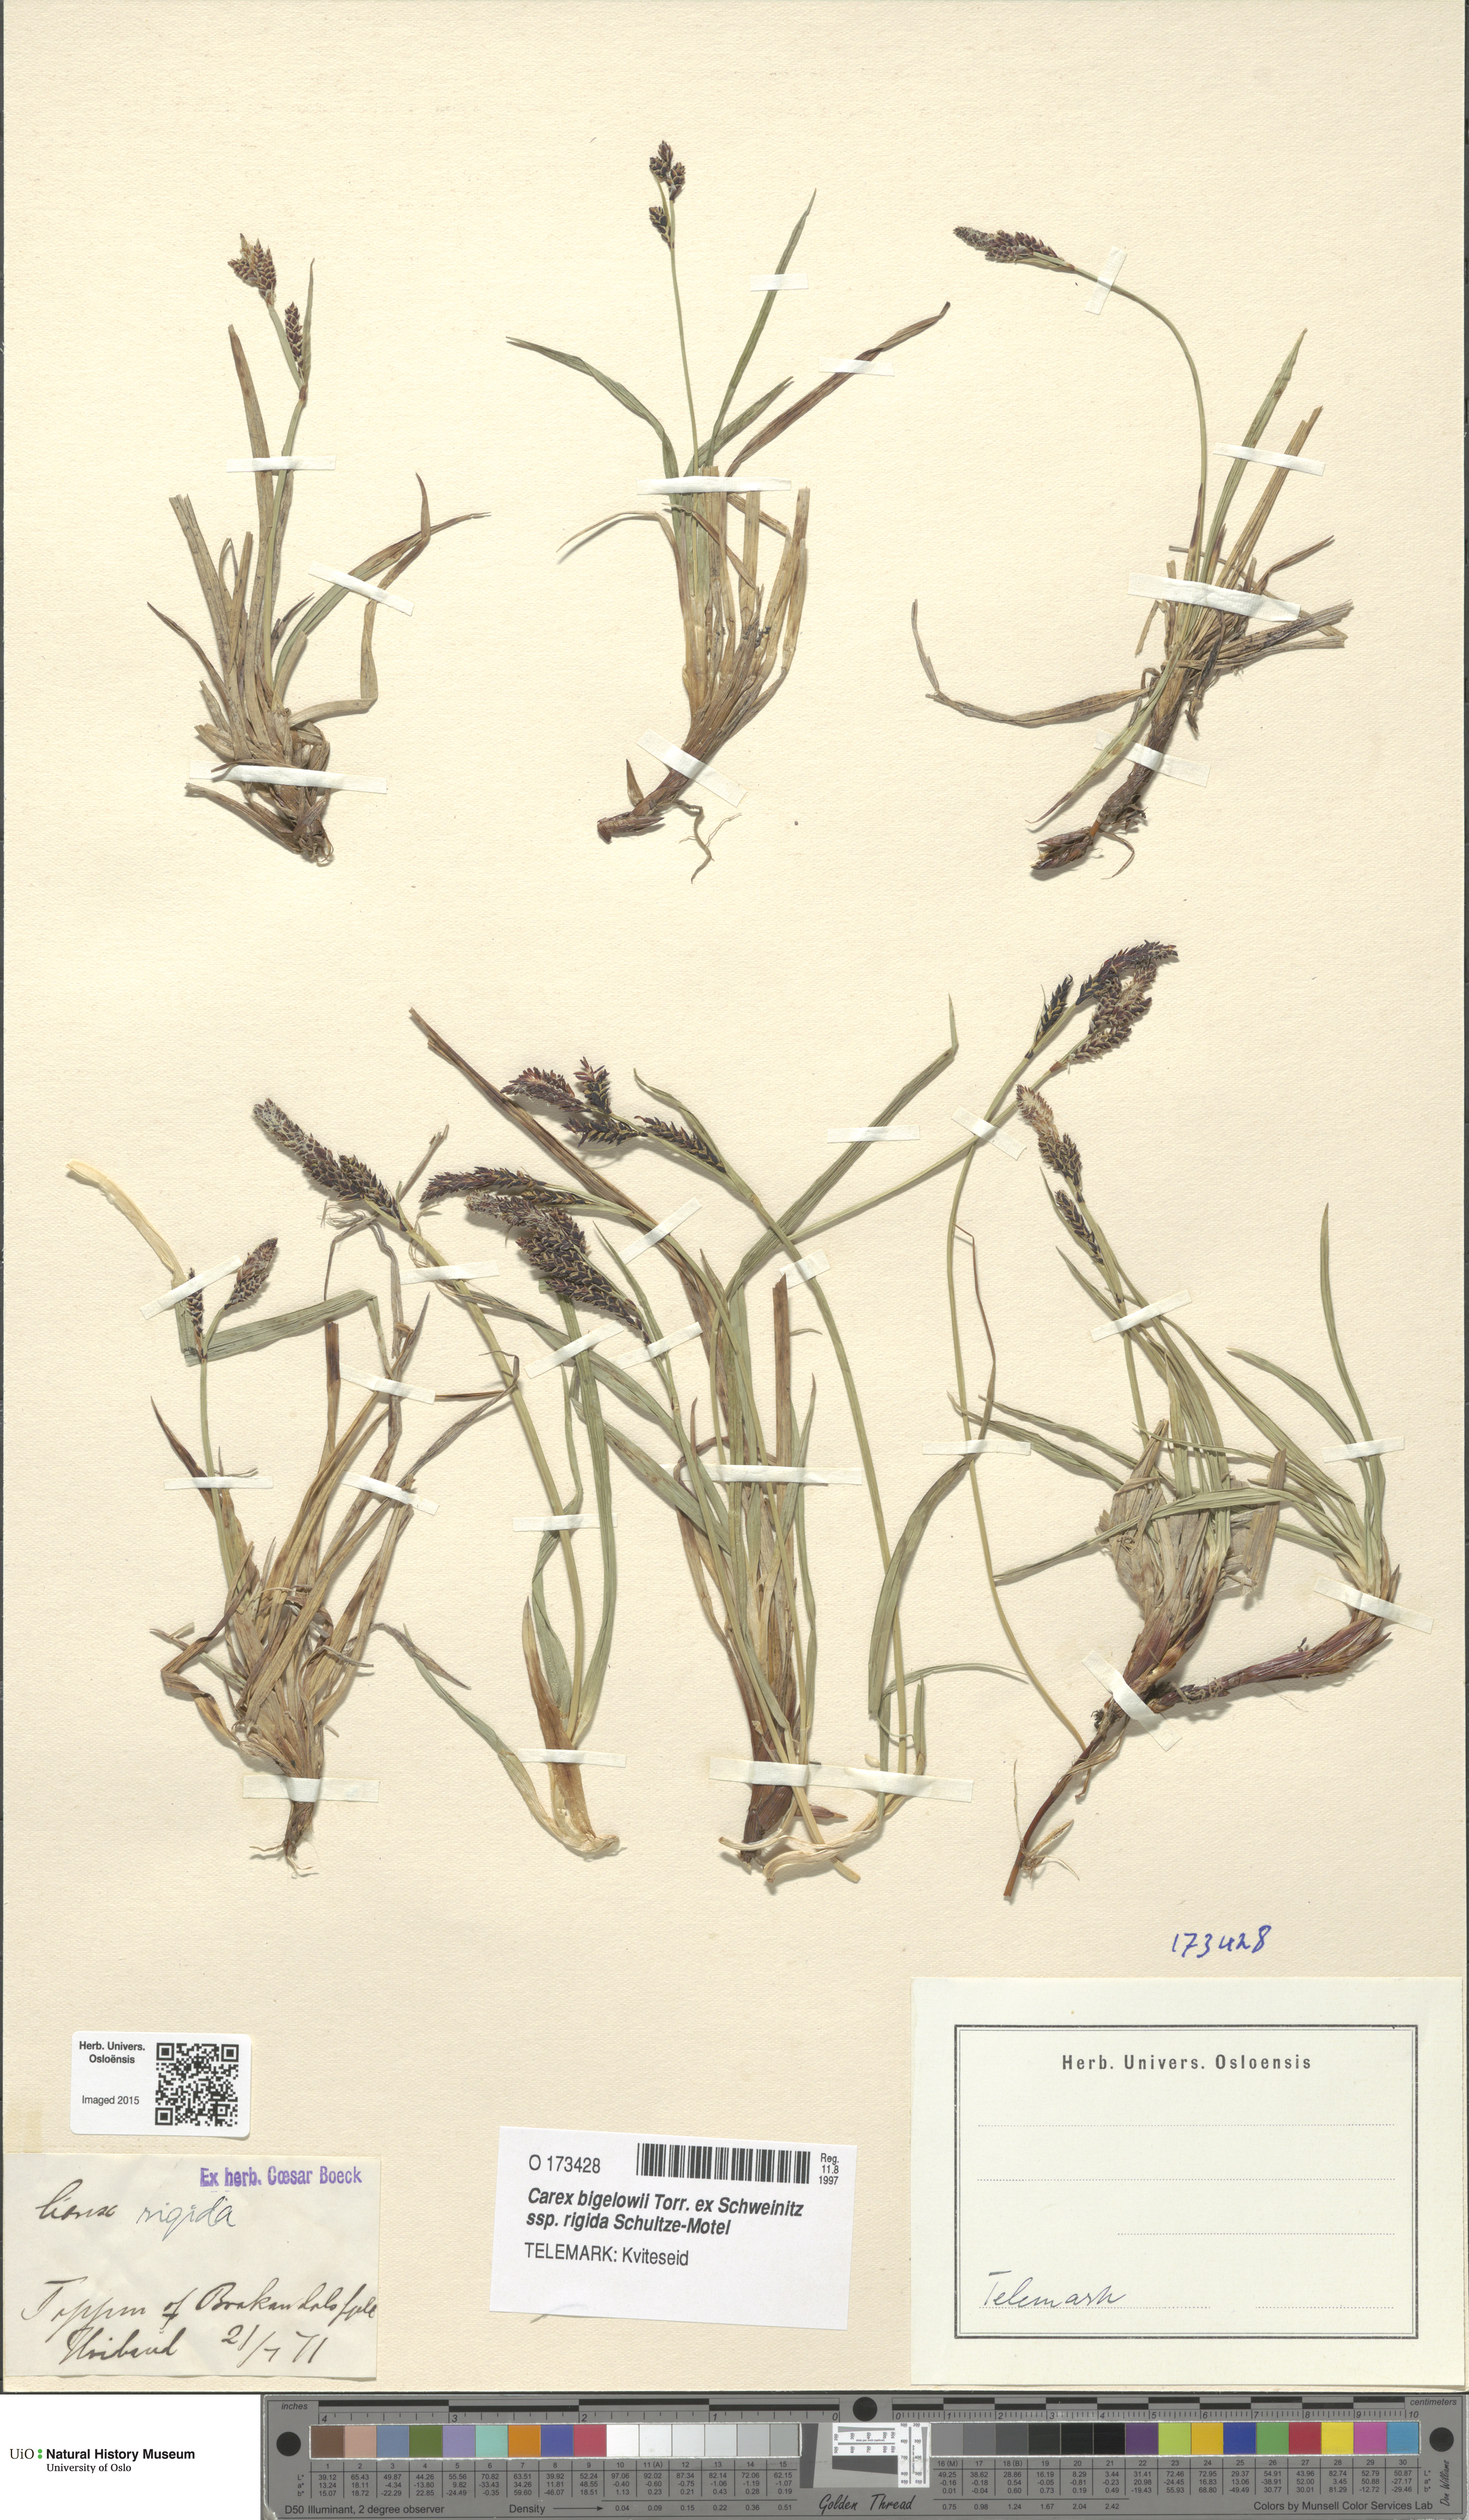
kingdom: Plantae
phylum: Tracheophyta
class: Liliopsida
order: Poales
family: Cyperaceae
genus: Carex
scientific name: Carex dacica
